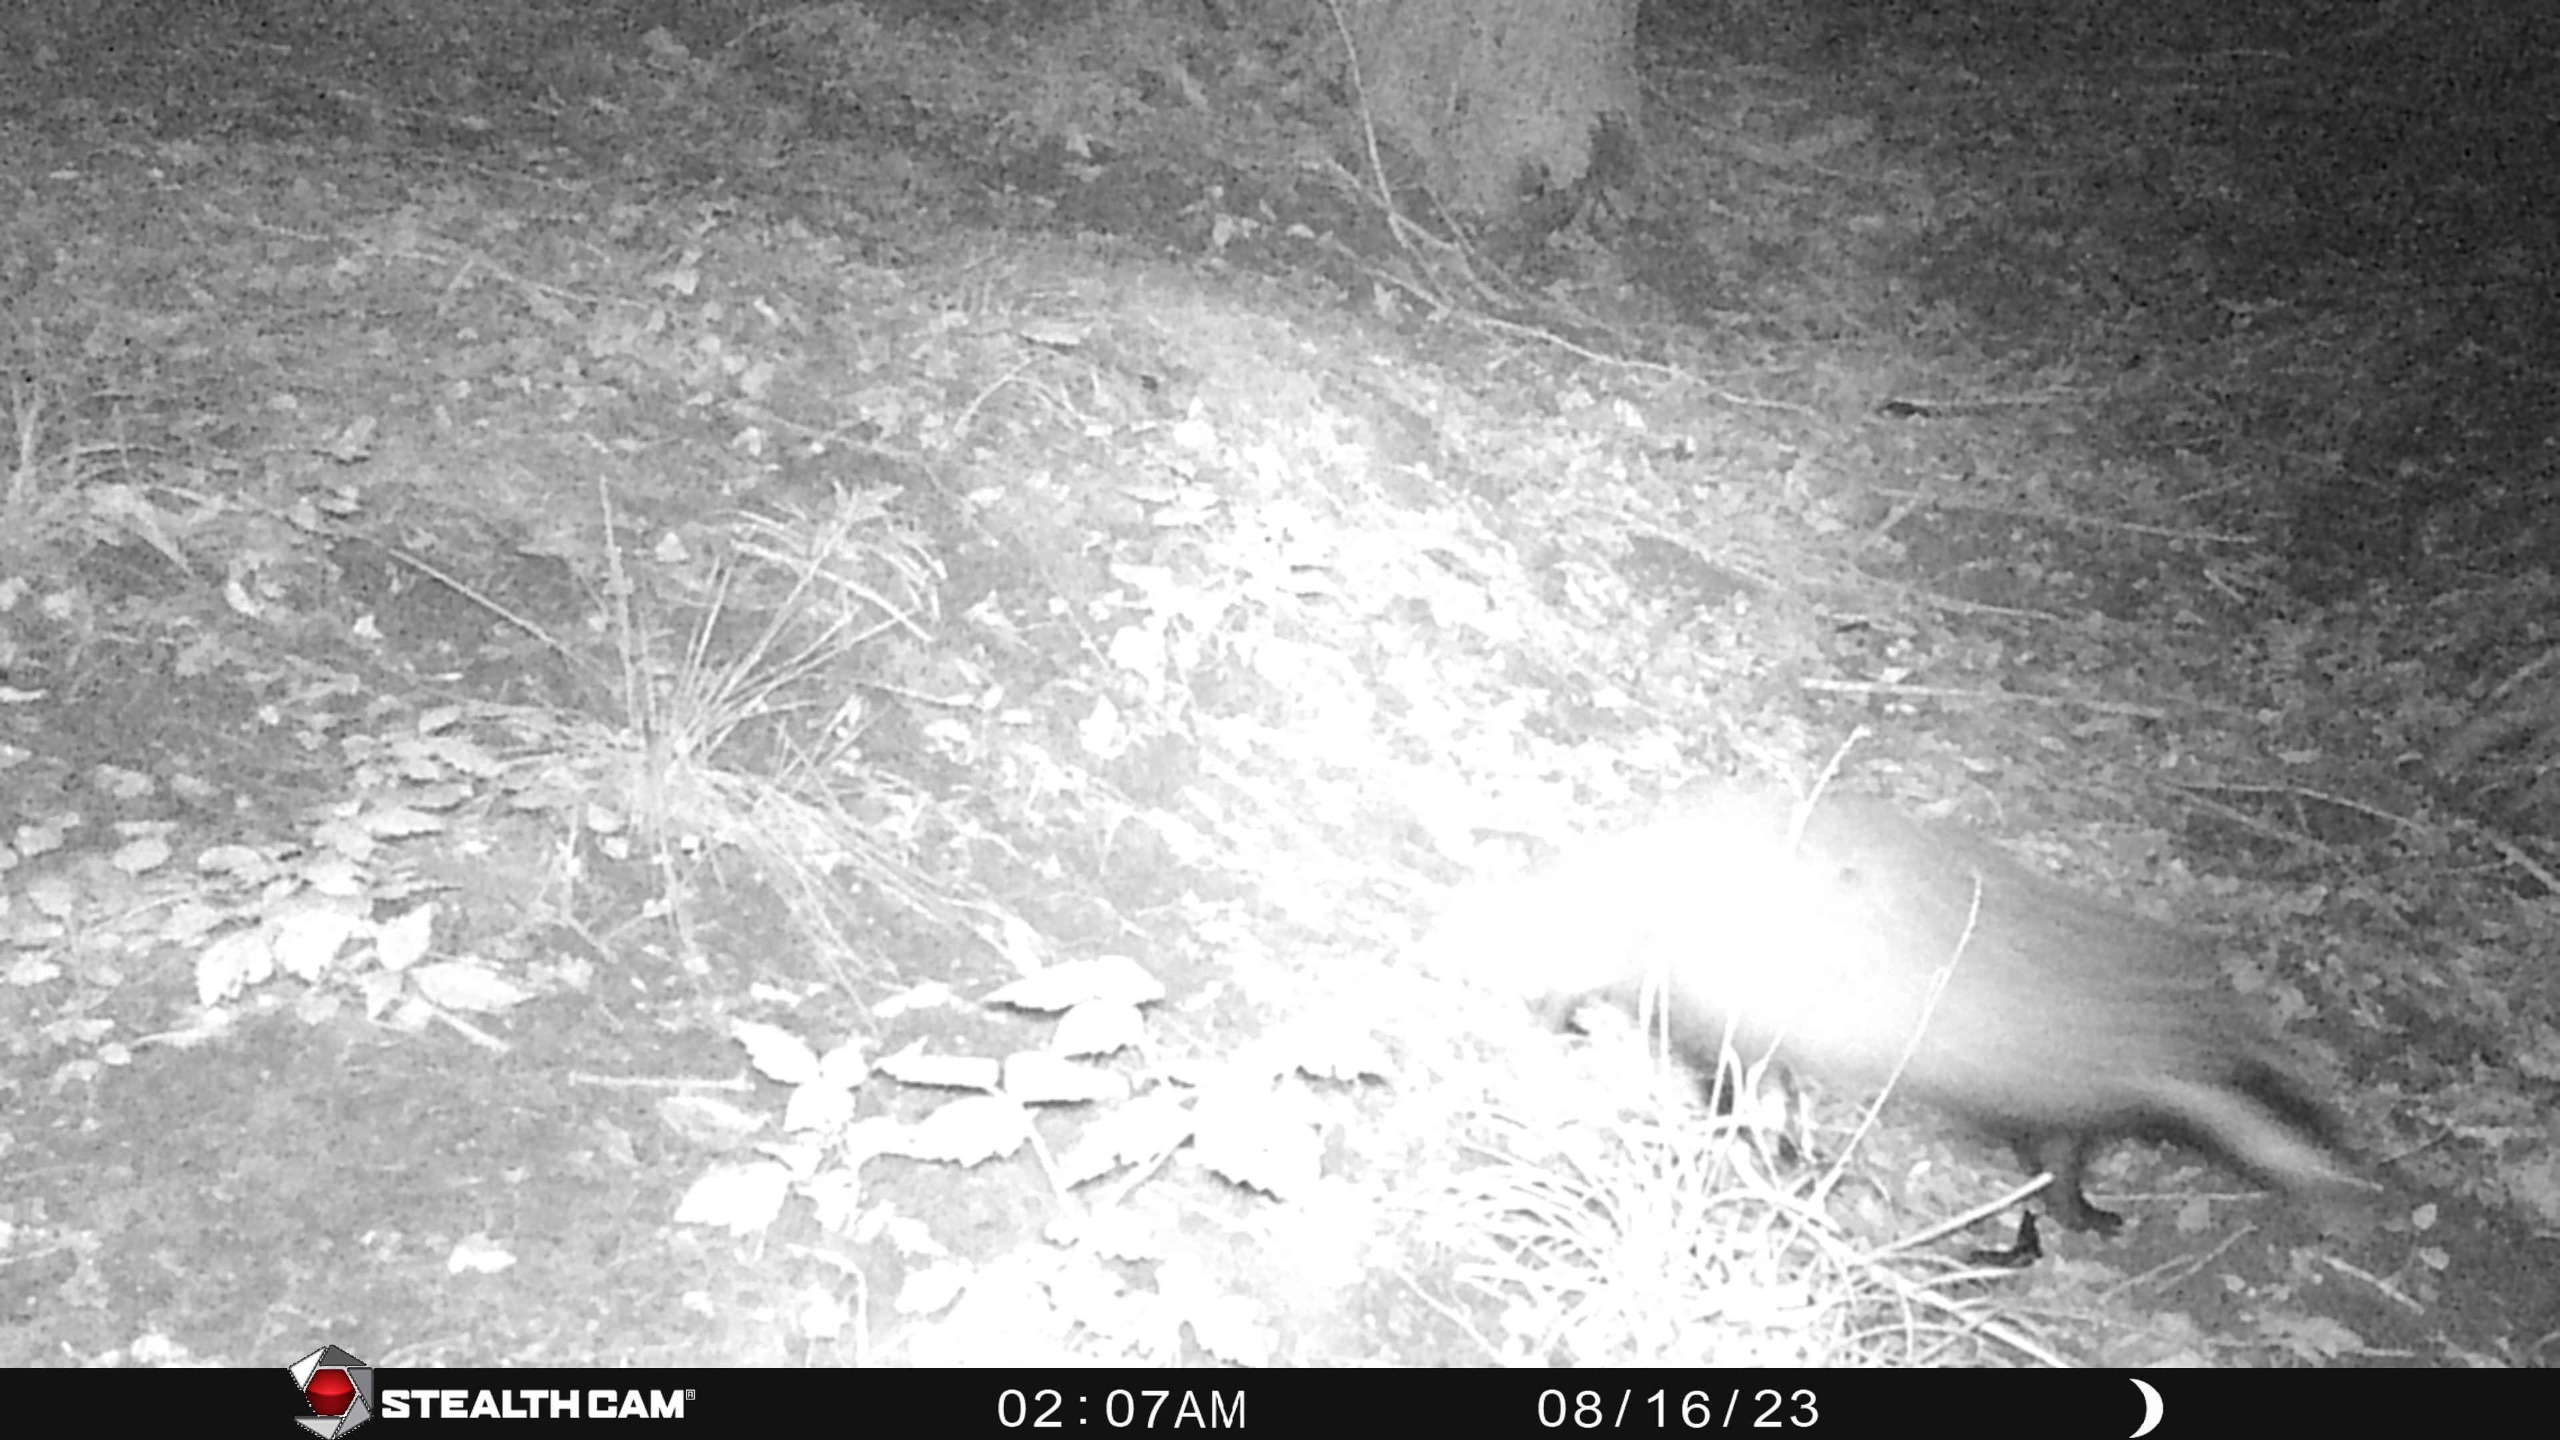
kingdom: Animalia
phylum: Chordata
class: Mammalia
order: Carnivora
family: Mustelidae
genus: Meles
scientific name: Meles meles
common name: Grævling
